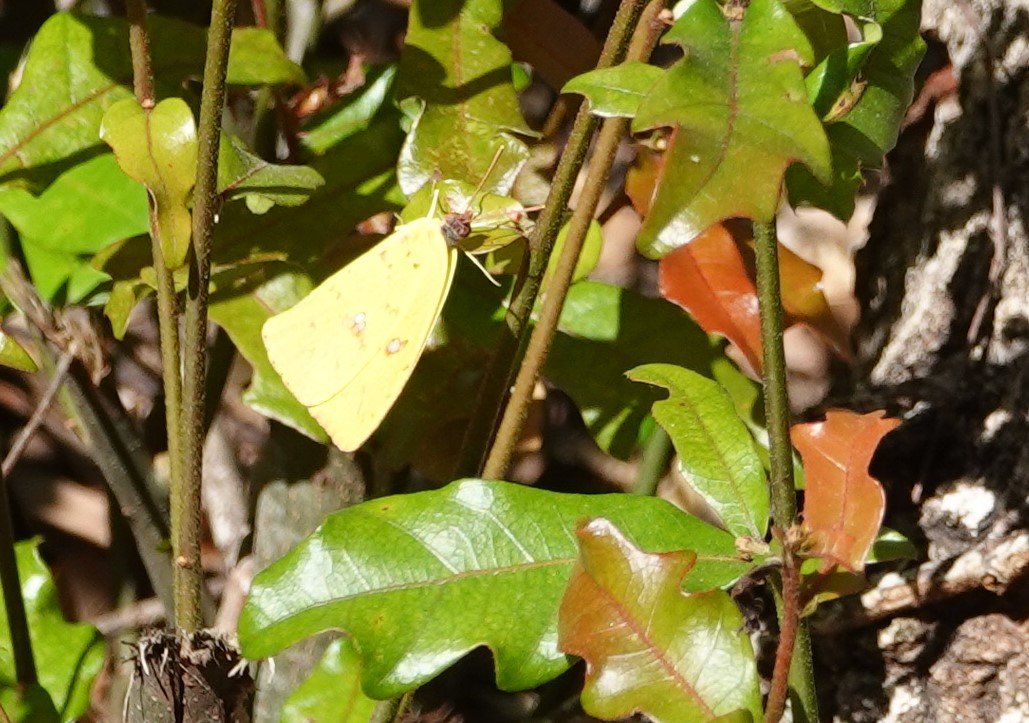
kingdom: Animalia
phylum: Arthropoda
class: Insecta
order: Lepidoptera
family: Pieridae
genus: Phoebis
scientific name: Phoebis sennae
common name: Cloudless Sulphur
